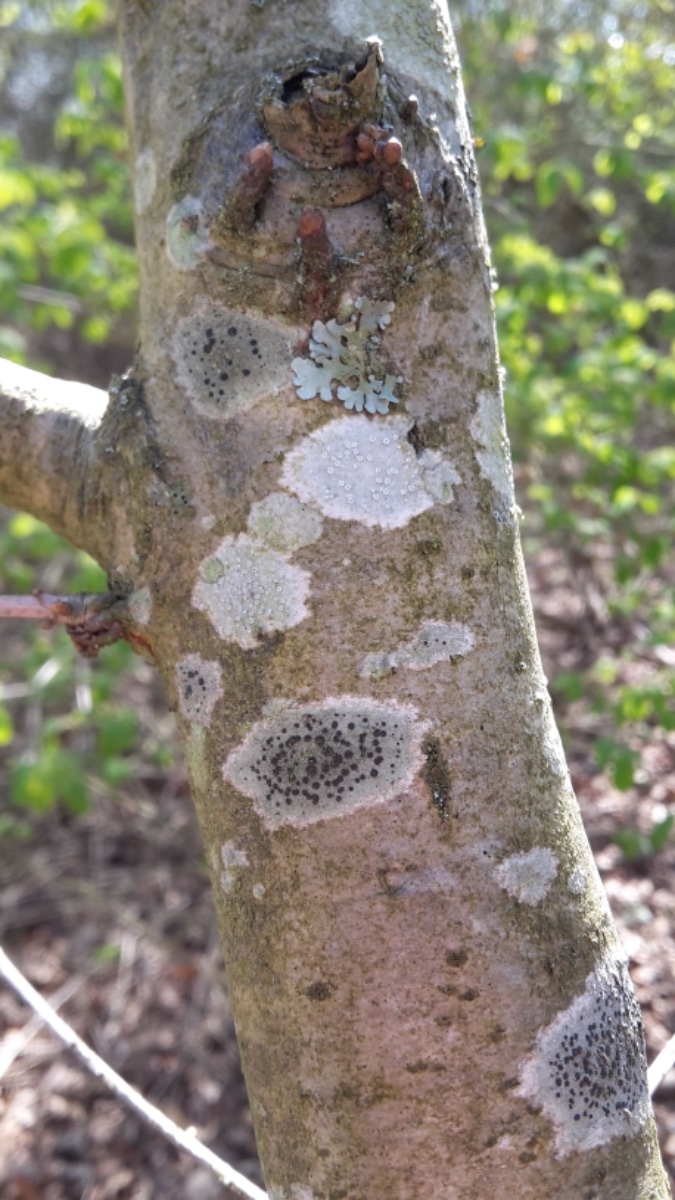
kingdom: Fungi
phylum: Ascomycota
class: Lecanoromycetes
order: Lecanorales
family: Lecanoraceae
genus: Lecidella
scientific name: Lecidella elaeochroma
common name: grågrøn skivelav
